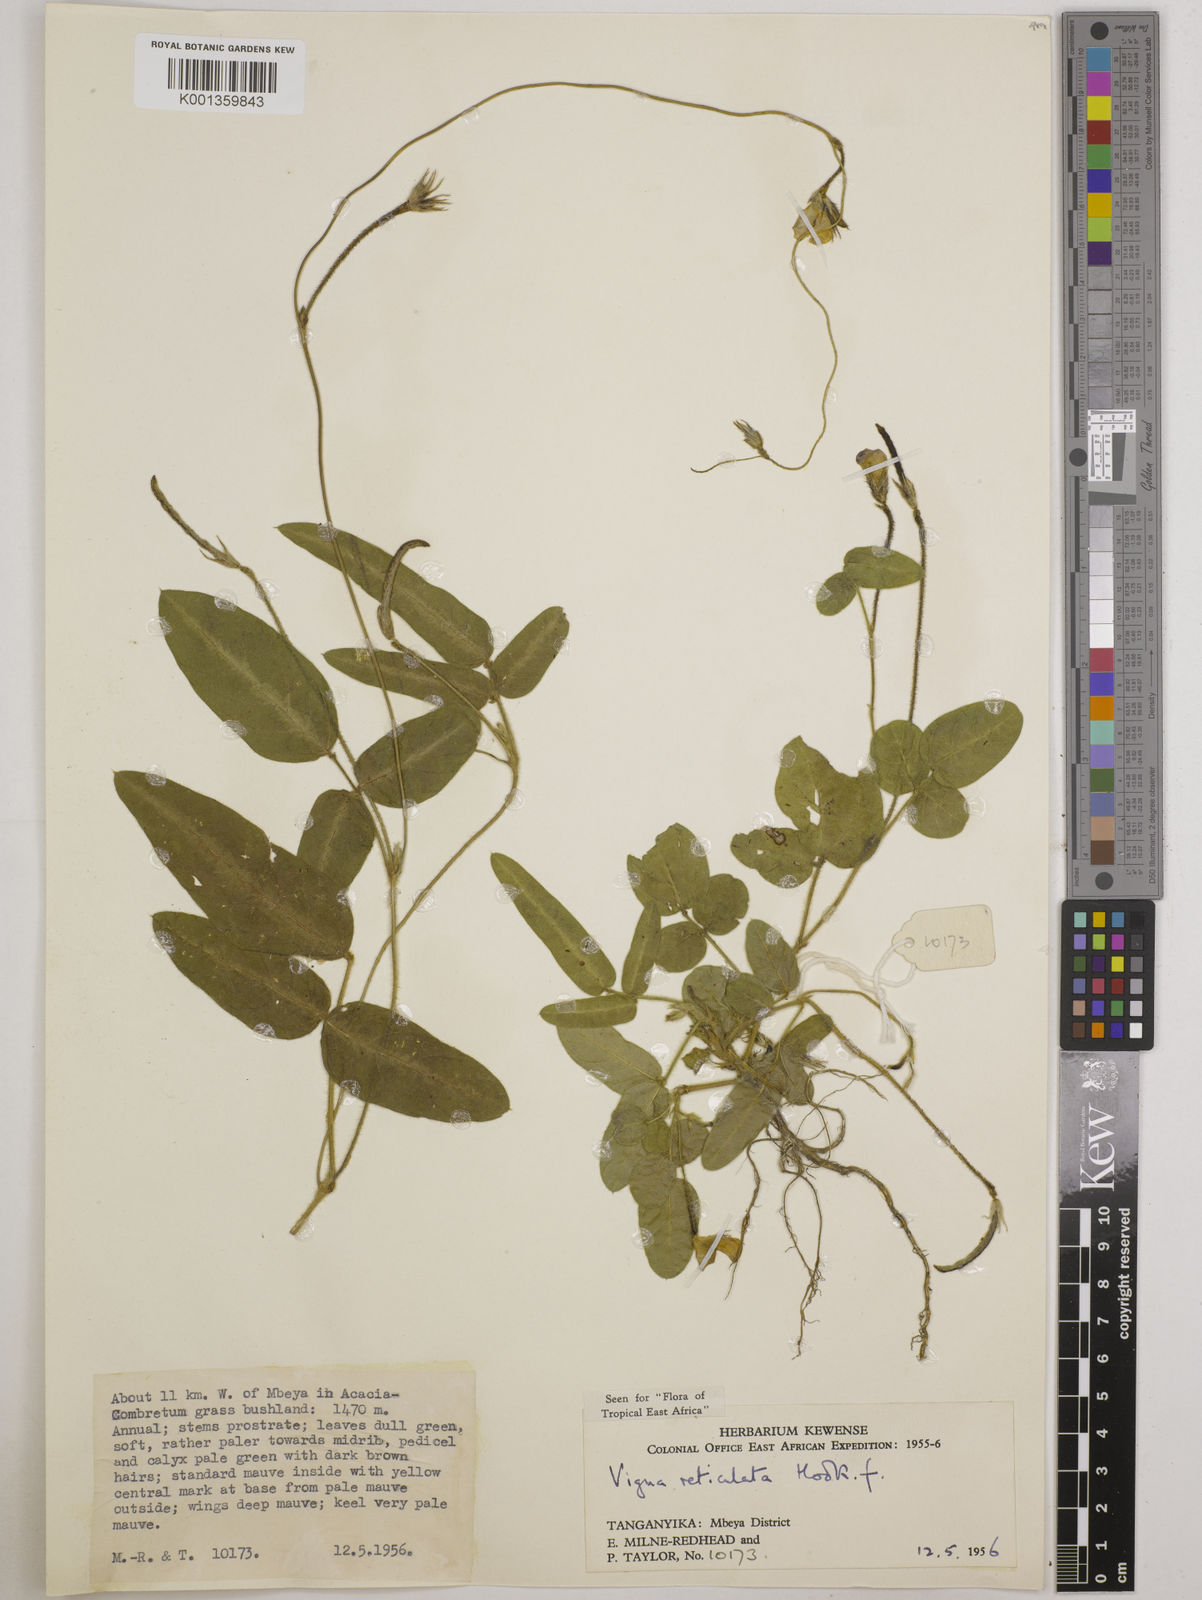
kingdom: Plantae
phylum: Tracheophyta
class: Magnoliopsida
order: Fabales
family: Fabaceae
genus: Vigna
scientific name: Vigna reticulata
